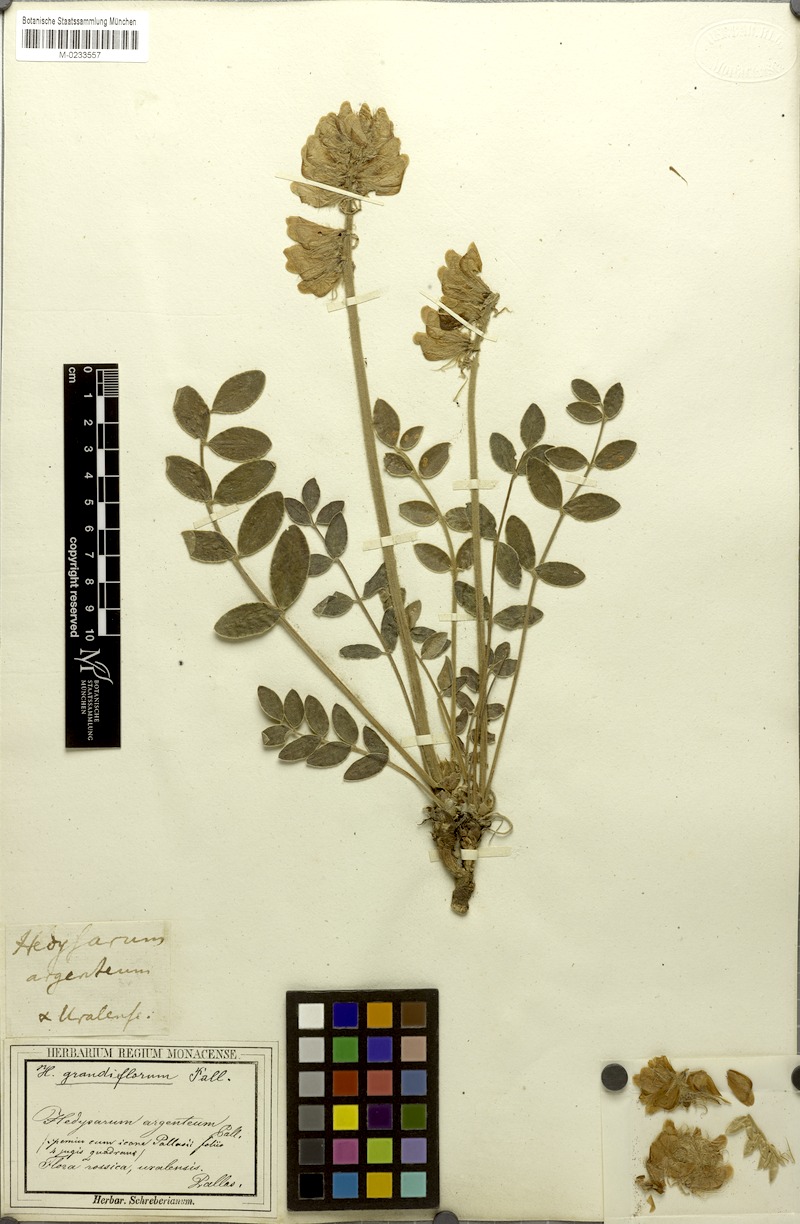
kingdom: Plantae
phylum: Tracheophyta
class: Magnoliopsida
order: Fabales
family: Fabaceae
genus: Hedysarum
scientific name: Hedysarum grandiflorum
